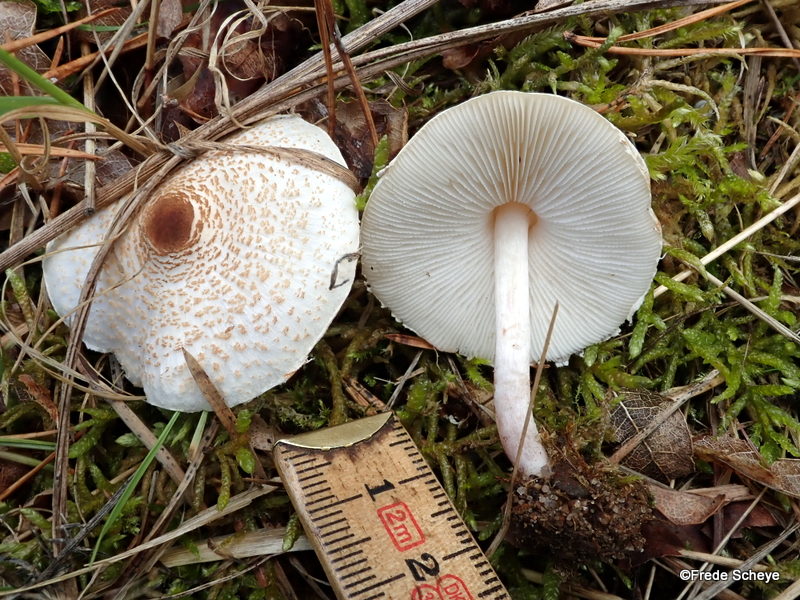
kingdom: Fungi
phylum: Basidiomycota
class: Agaricomycetes
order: Agaricales
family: Agaricaceae
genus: Lepiota
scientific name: Lepiota cristata
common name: stinkende parasolhat
